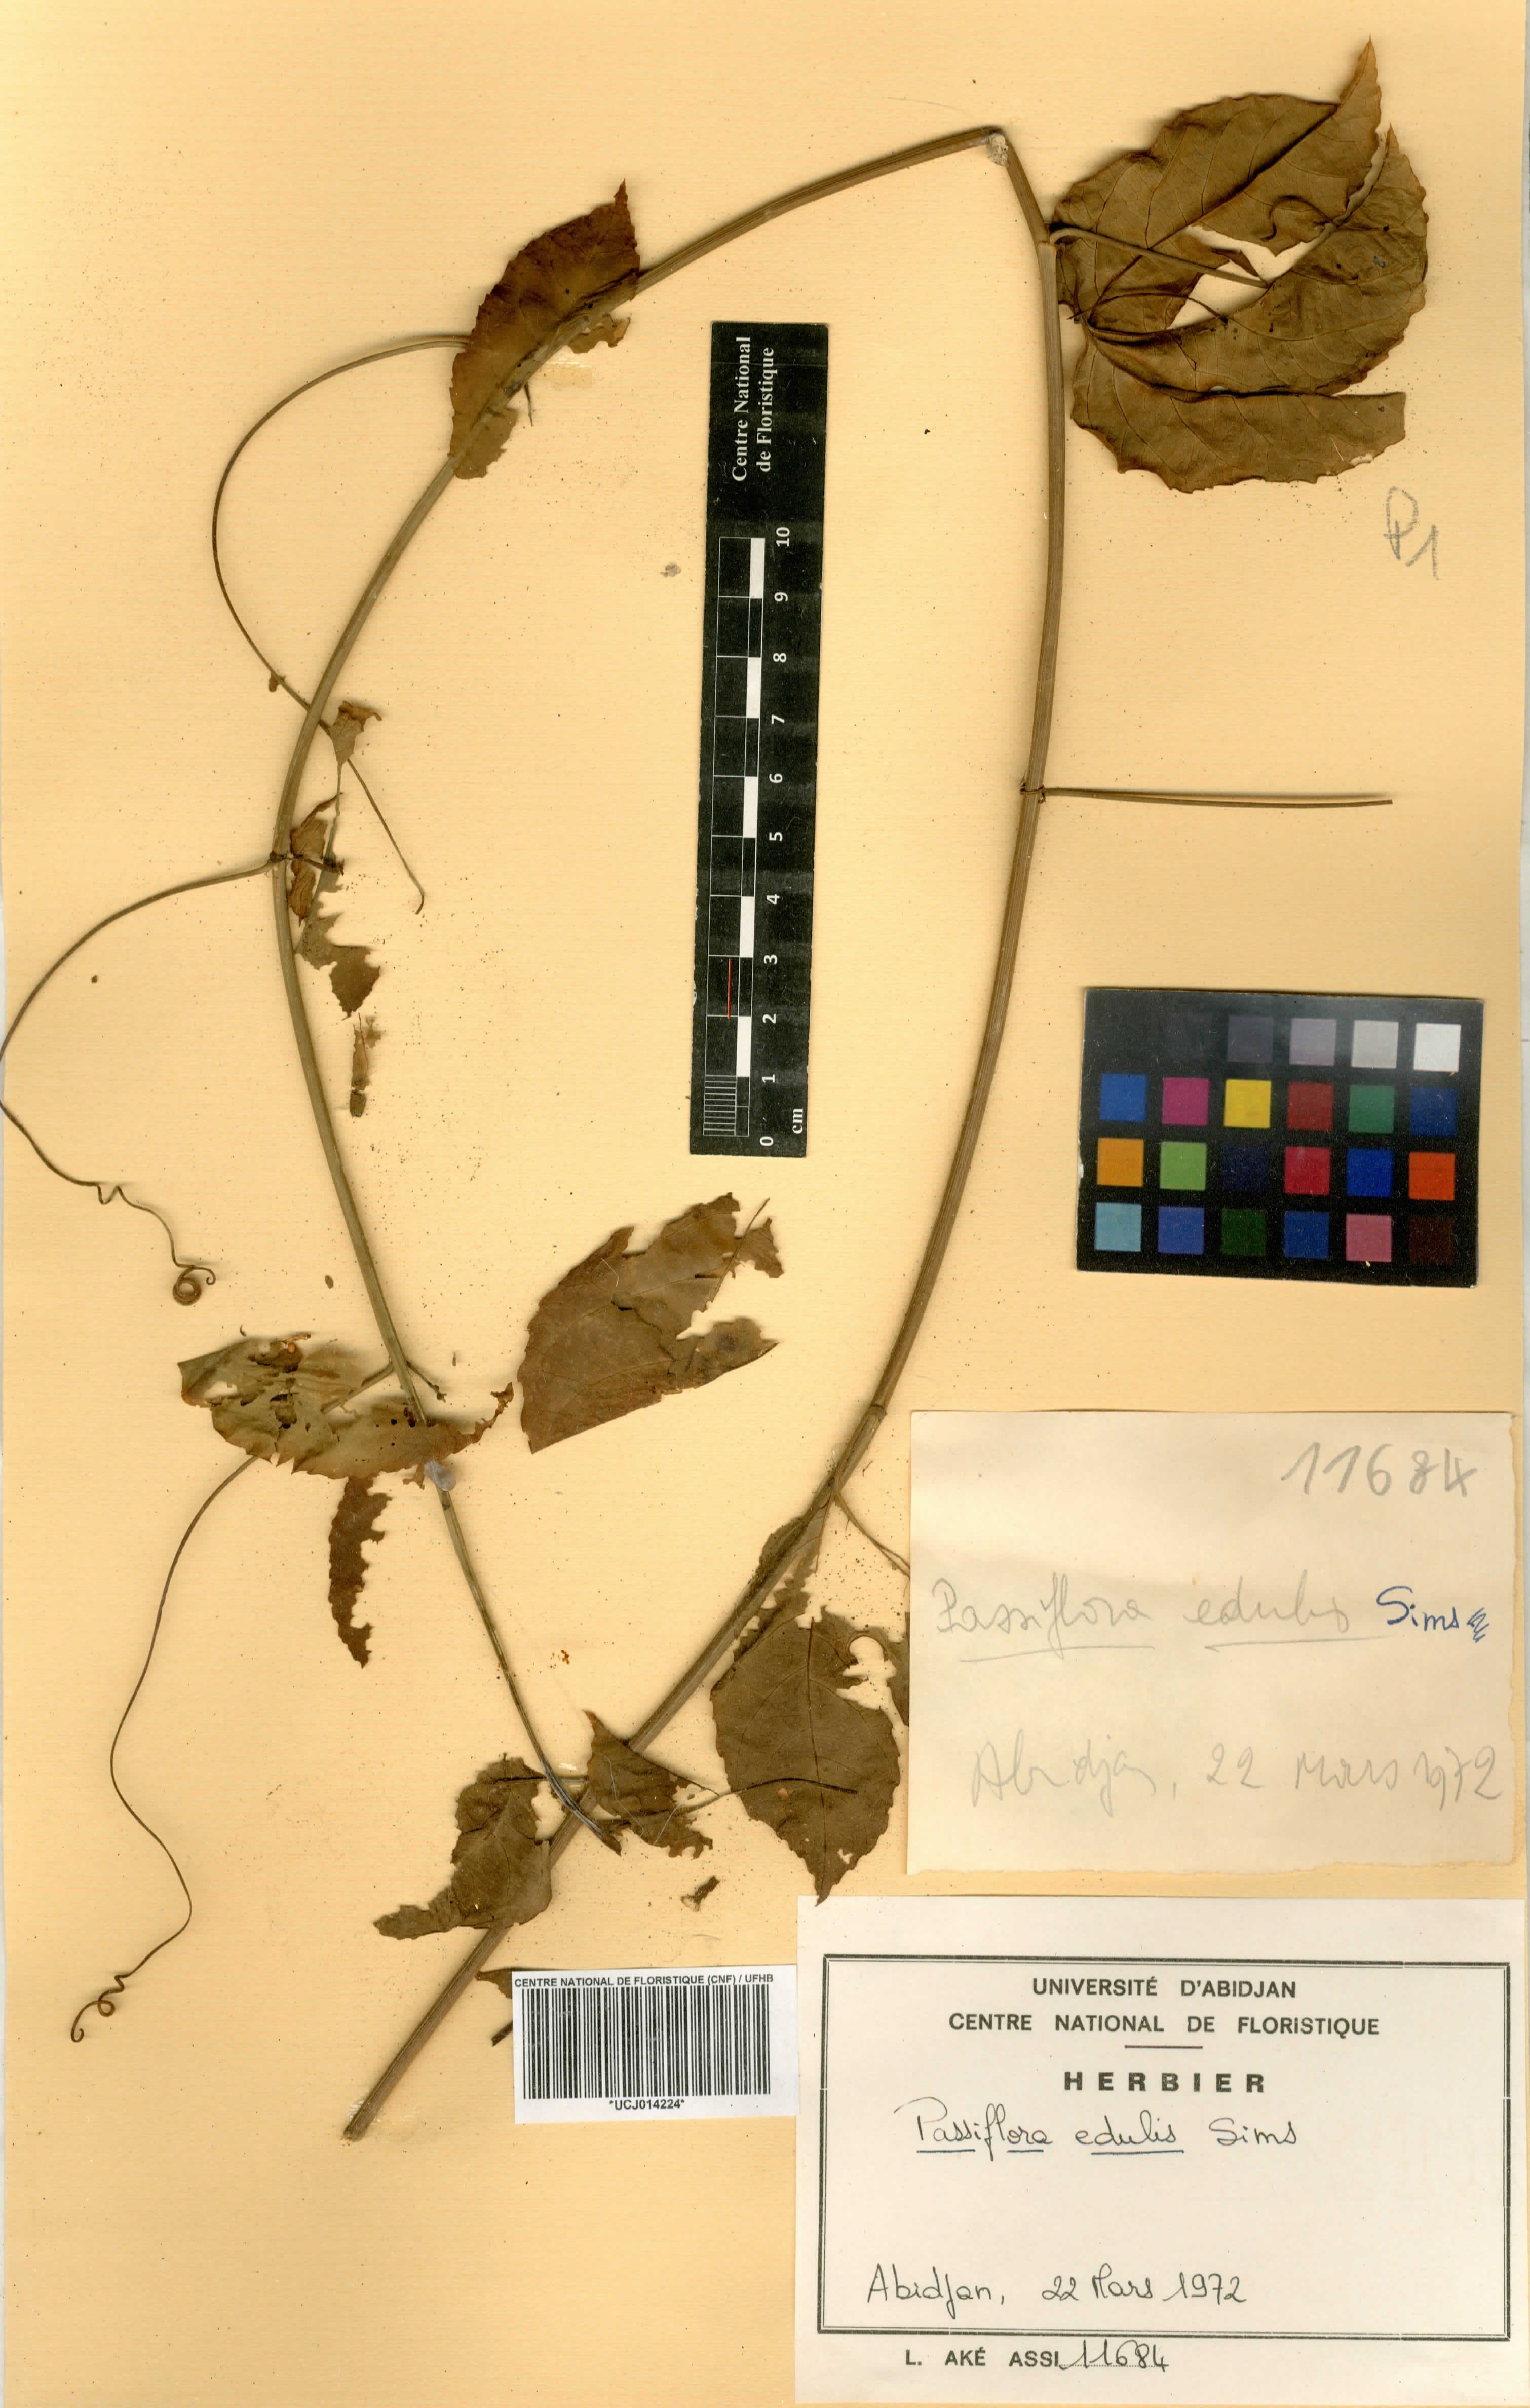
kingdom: Plantae
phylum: Tracheophyta
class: Magnoliopsida
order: Malpighiales
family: Passifloraceae
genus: Passiflora
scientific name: Passiflora edulis
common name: Purple granadilla
